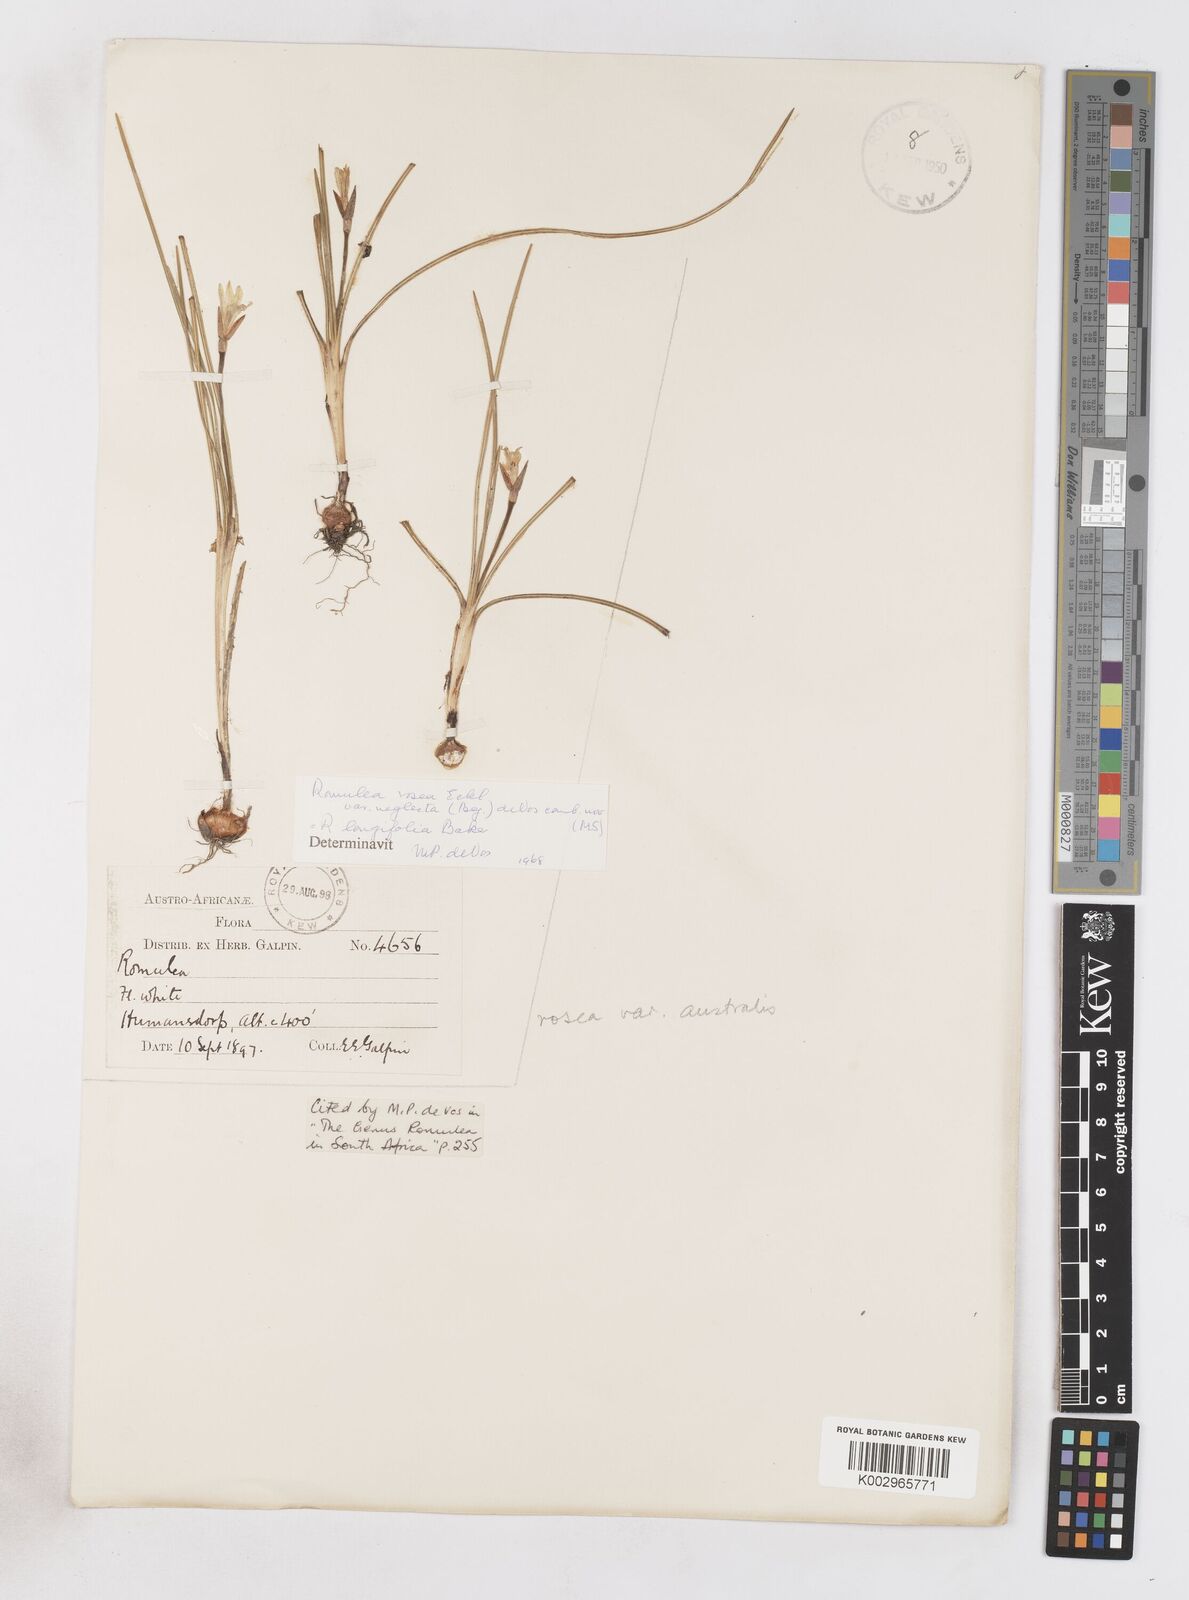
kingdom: Plantae
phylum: Tracheophyta
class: Liliopsida
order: Asparagales
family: Iridaceae
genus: Romulea
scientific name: Romulea rosea
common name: Oniongrass
